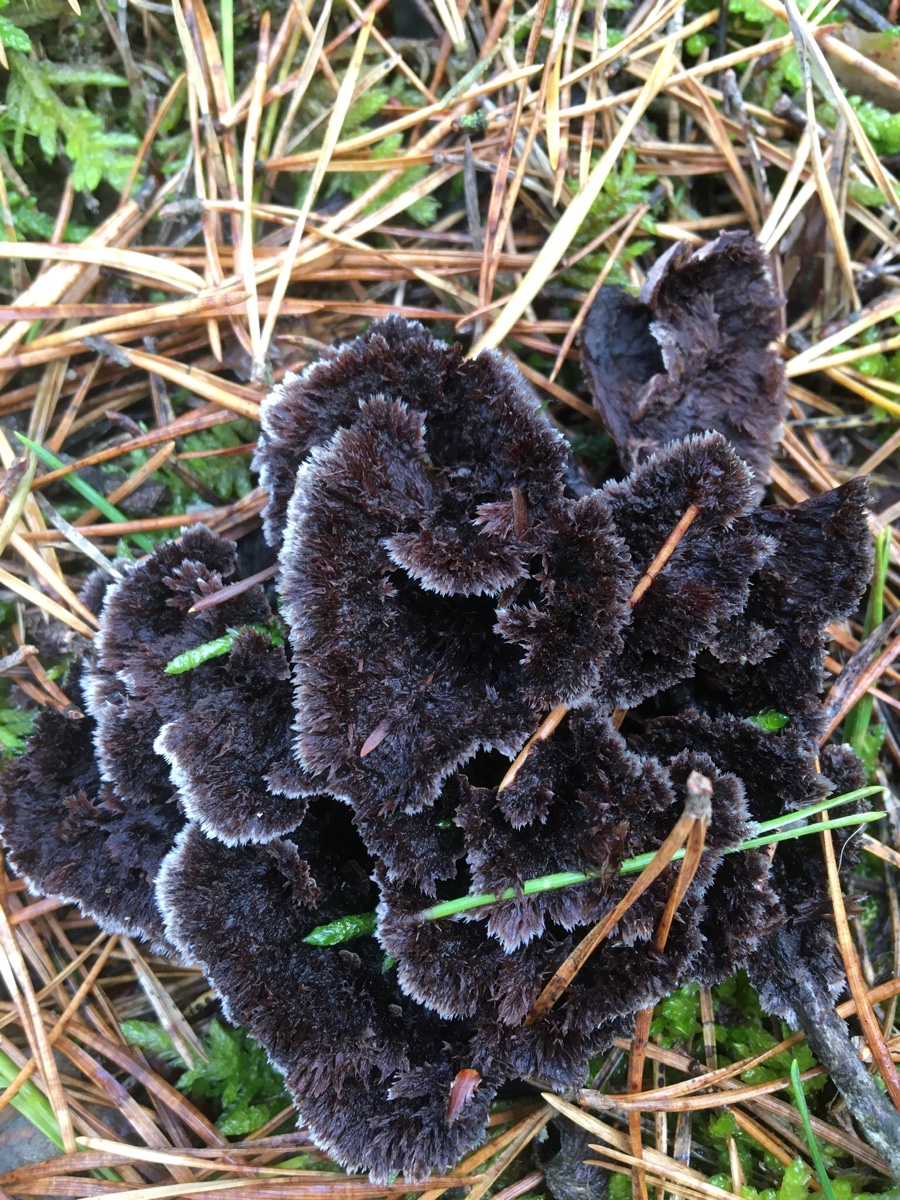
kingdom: Fungi
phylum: Basidiomycota
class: Agaricomycetes
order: Thelephorales
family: Thelephoraceae
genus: Thelephora
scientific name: Thelephora terrestris
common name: fliget frynsesvamp
